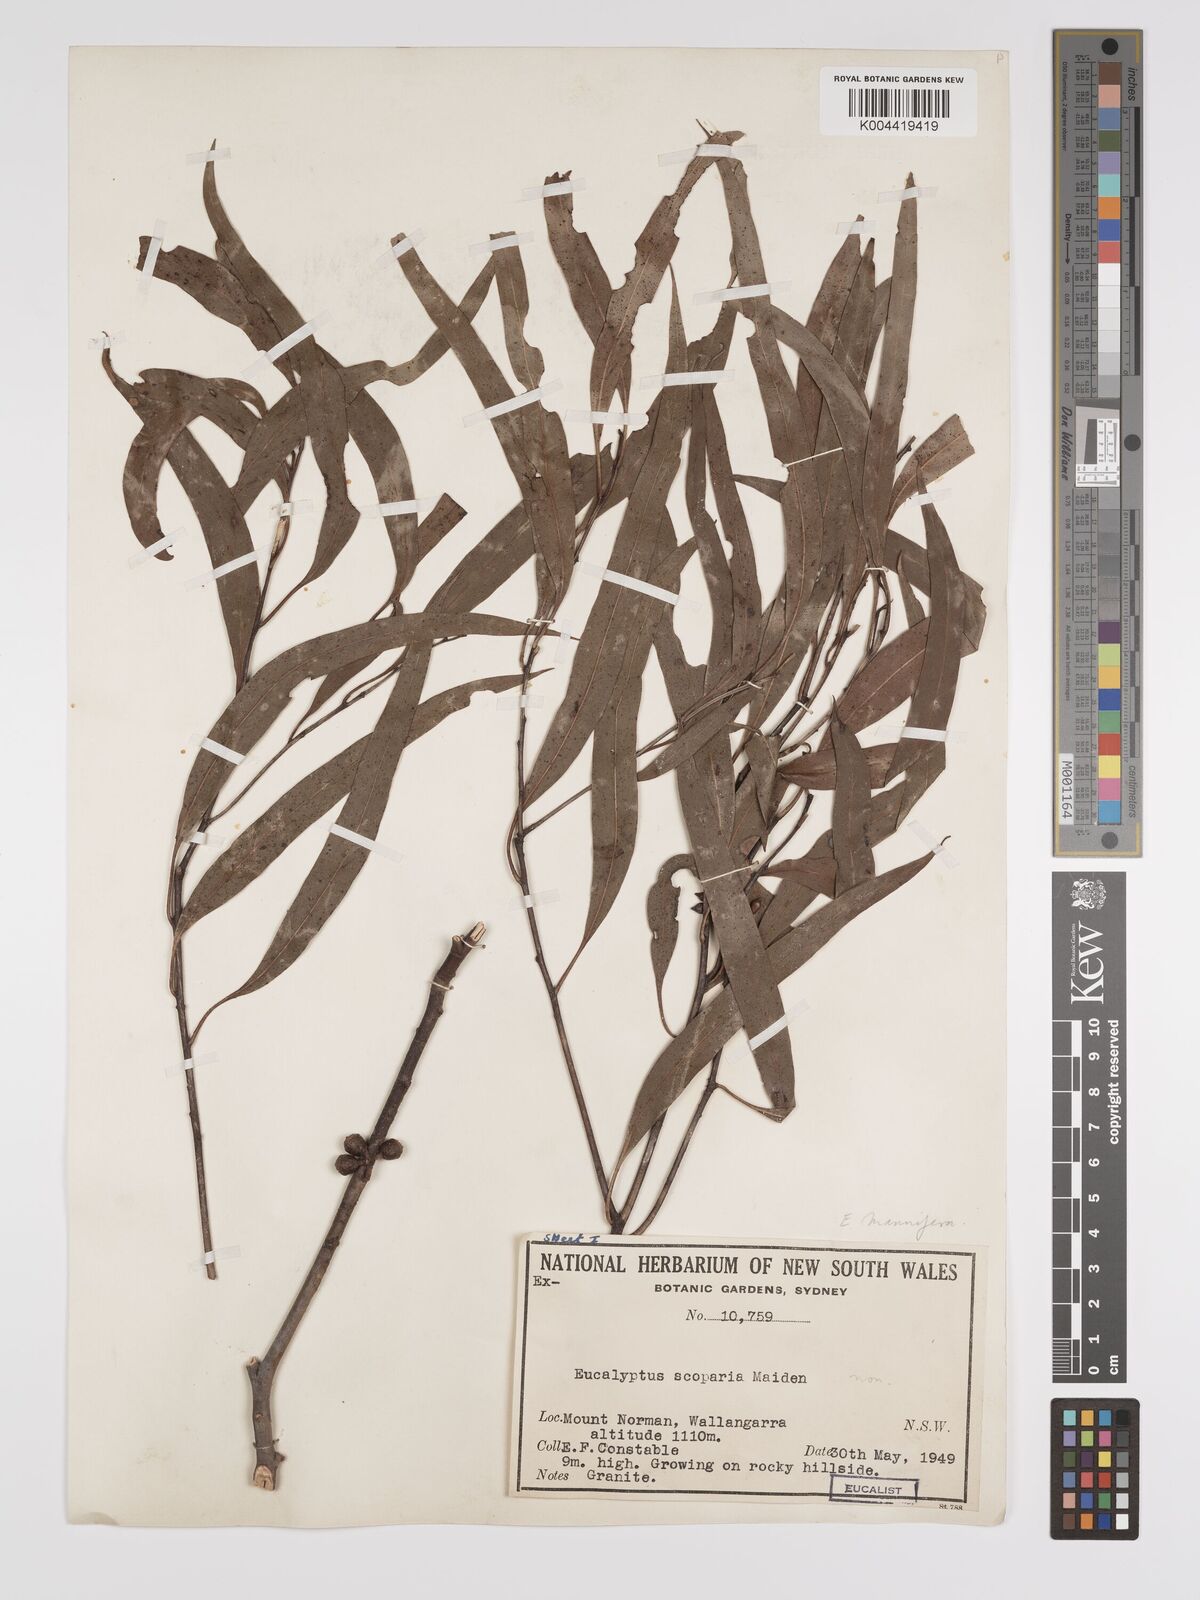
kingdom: Plantae
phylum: Tracheophyta
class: Magnoliopsida
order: Myrtales
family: Myrtaceae
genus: Eucalyptus
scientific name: Eucalyptus scoparia
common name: Wallangarra white gum
